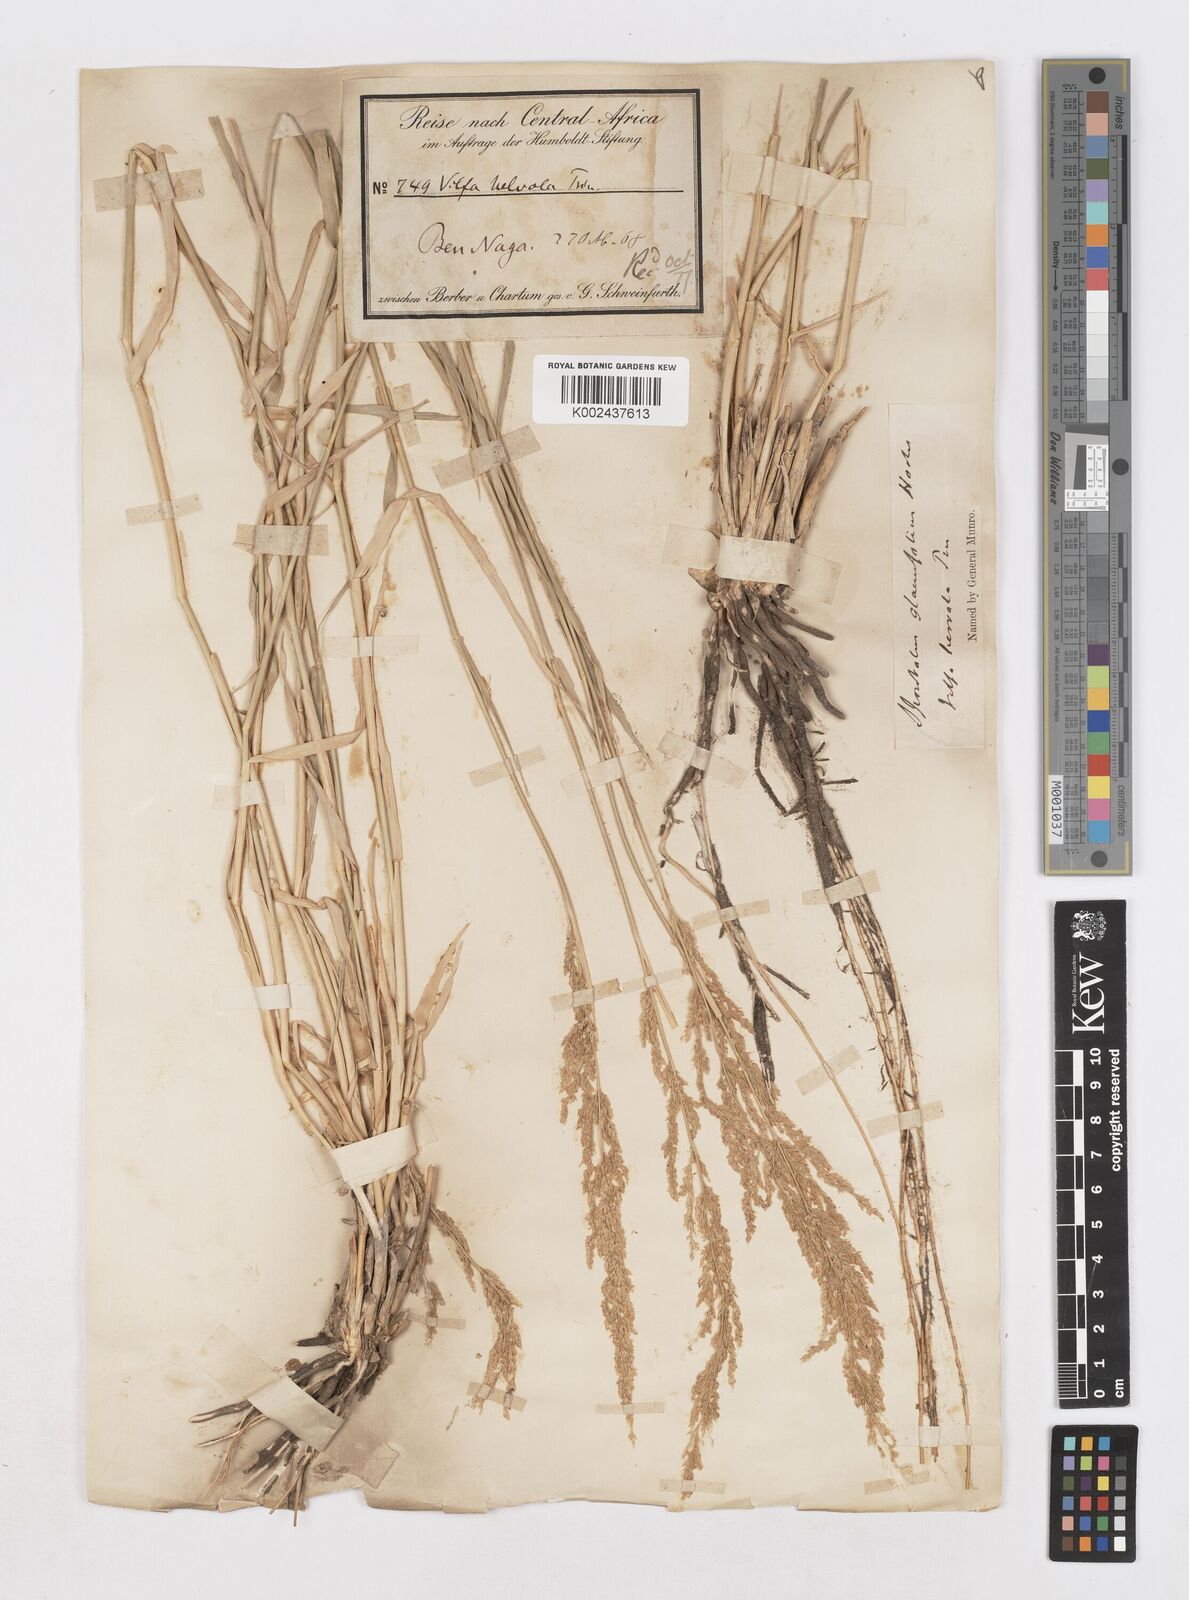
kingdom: Plantae
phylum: Tracheophyta
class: Liliopsida
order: Poales
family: Poaceae
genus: Sporobolus
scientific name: Sporobolus helvolus
